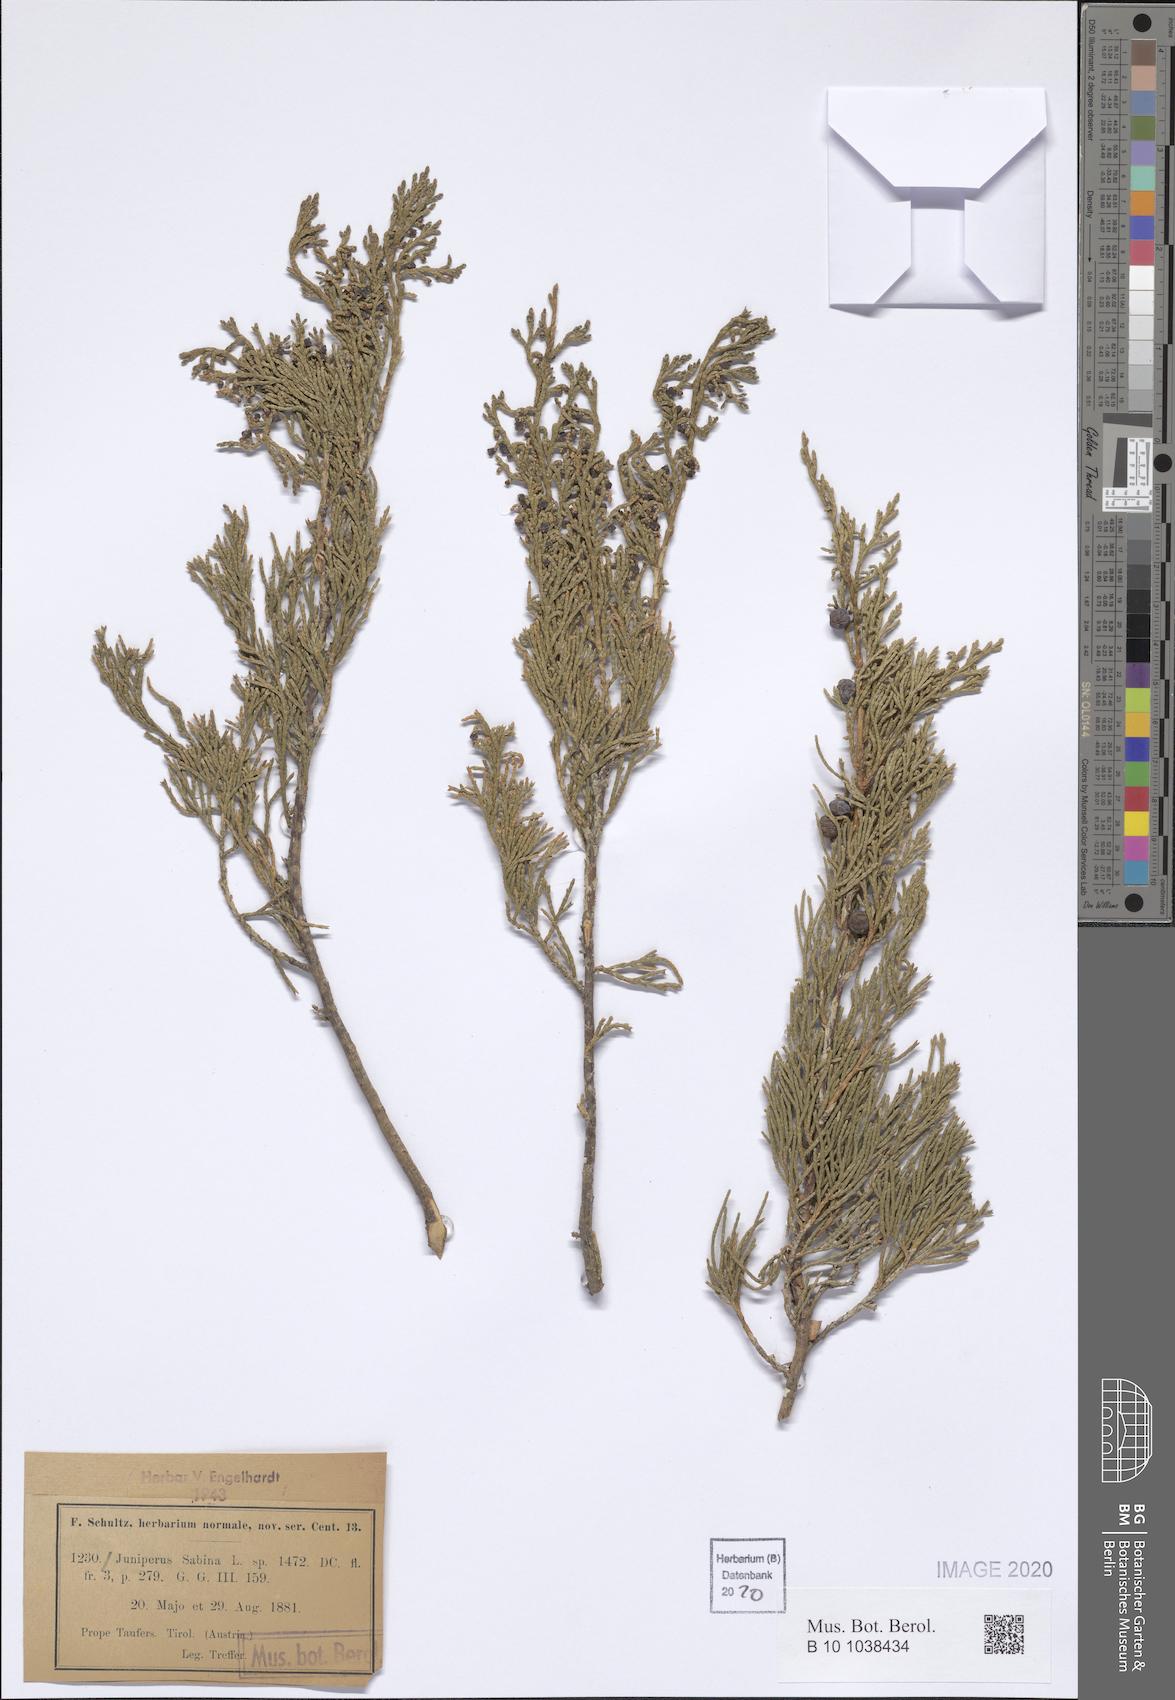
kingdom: Plantae
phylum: Tracheophyta
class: Pinopsida
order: Pinales
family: Cupressaceae
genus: Juniperus
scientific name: Juniperus sabina
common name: Savin
